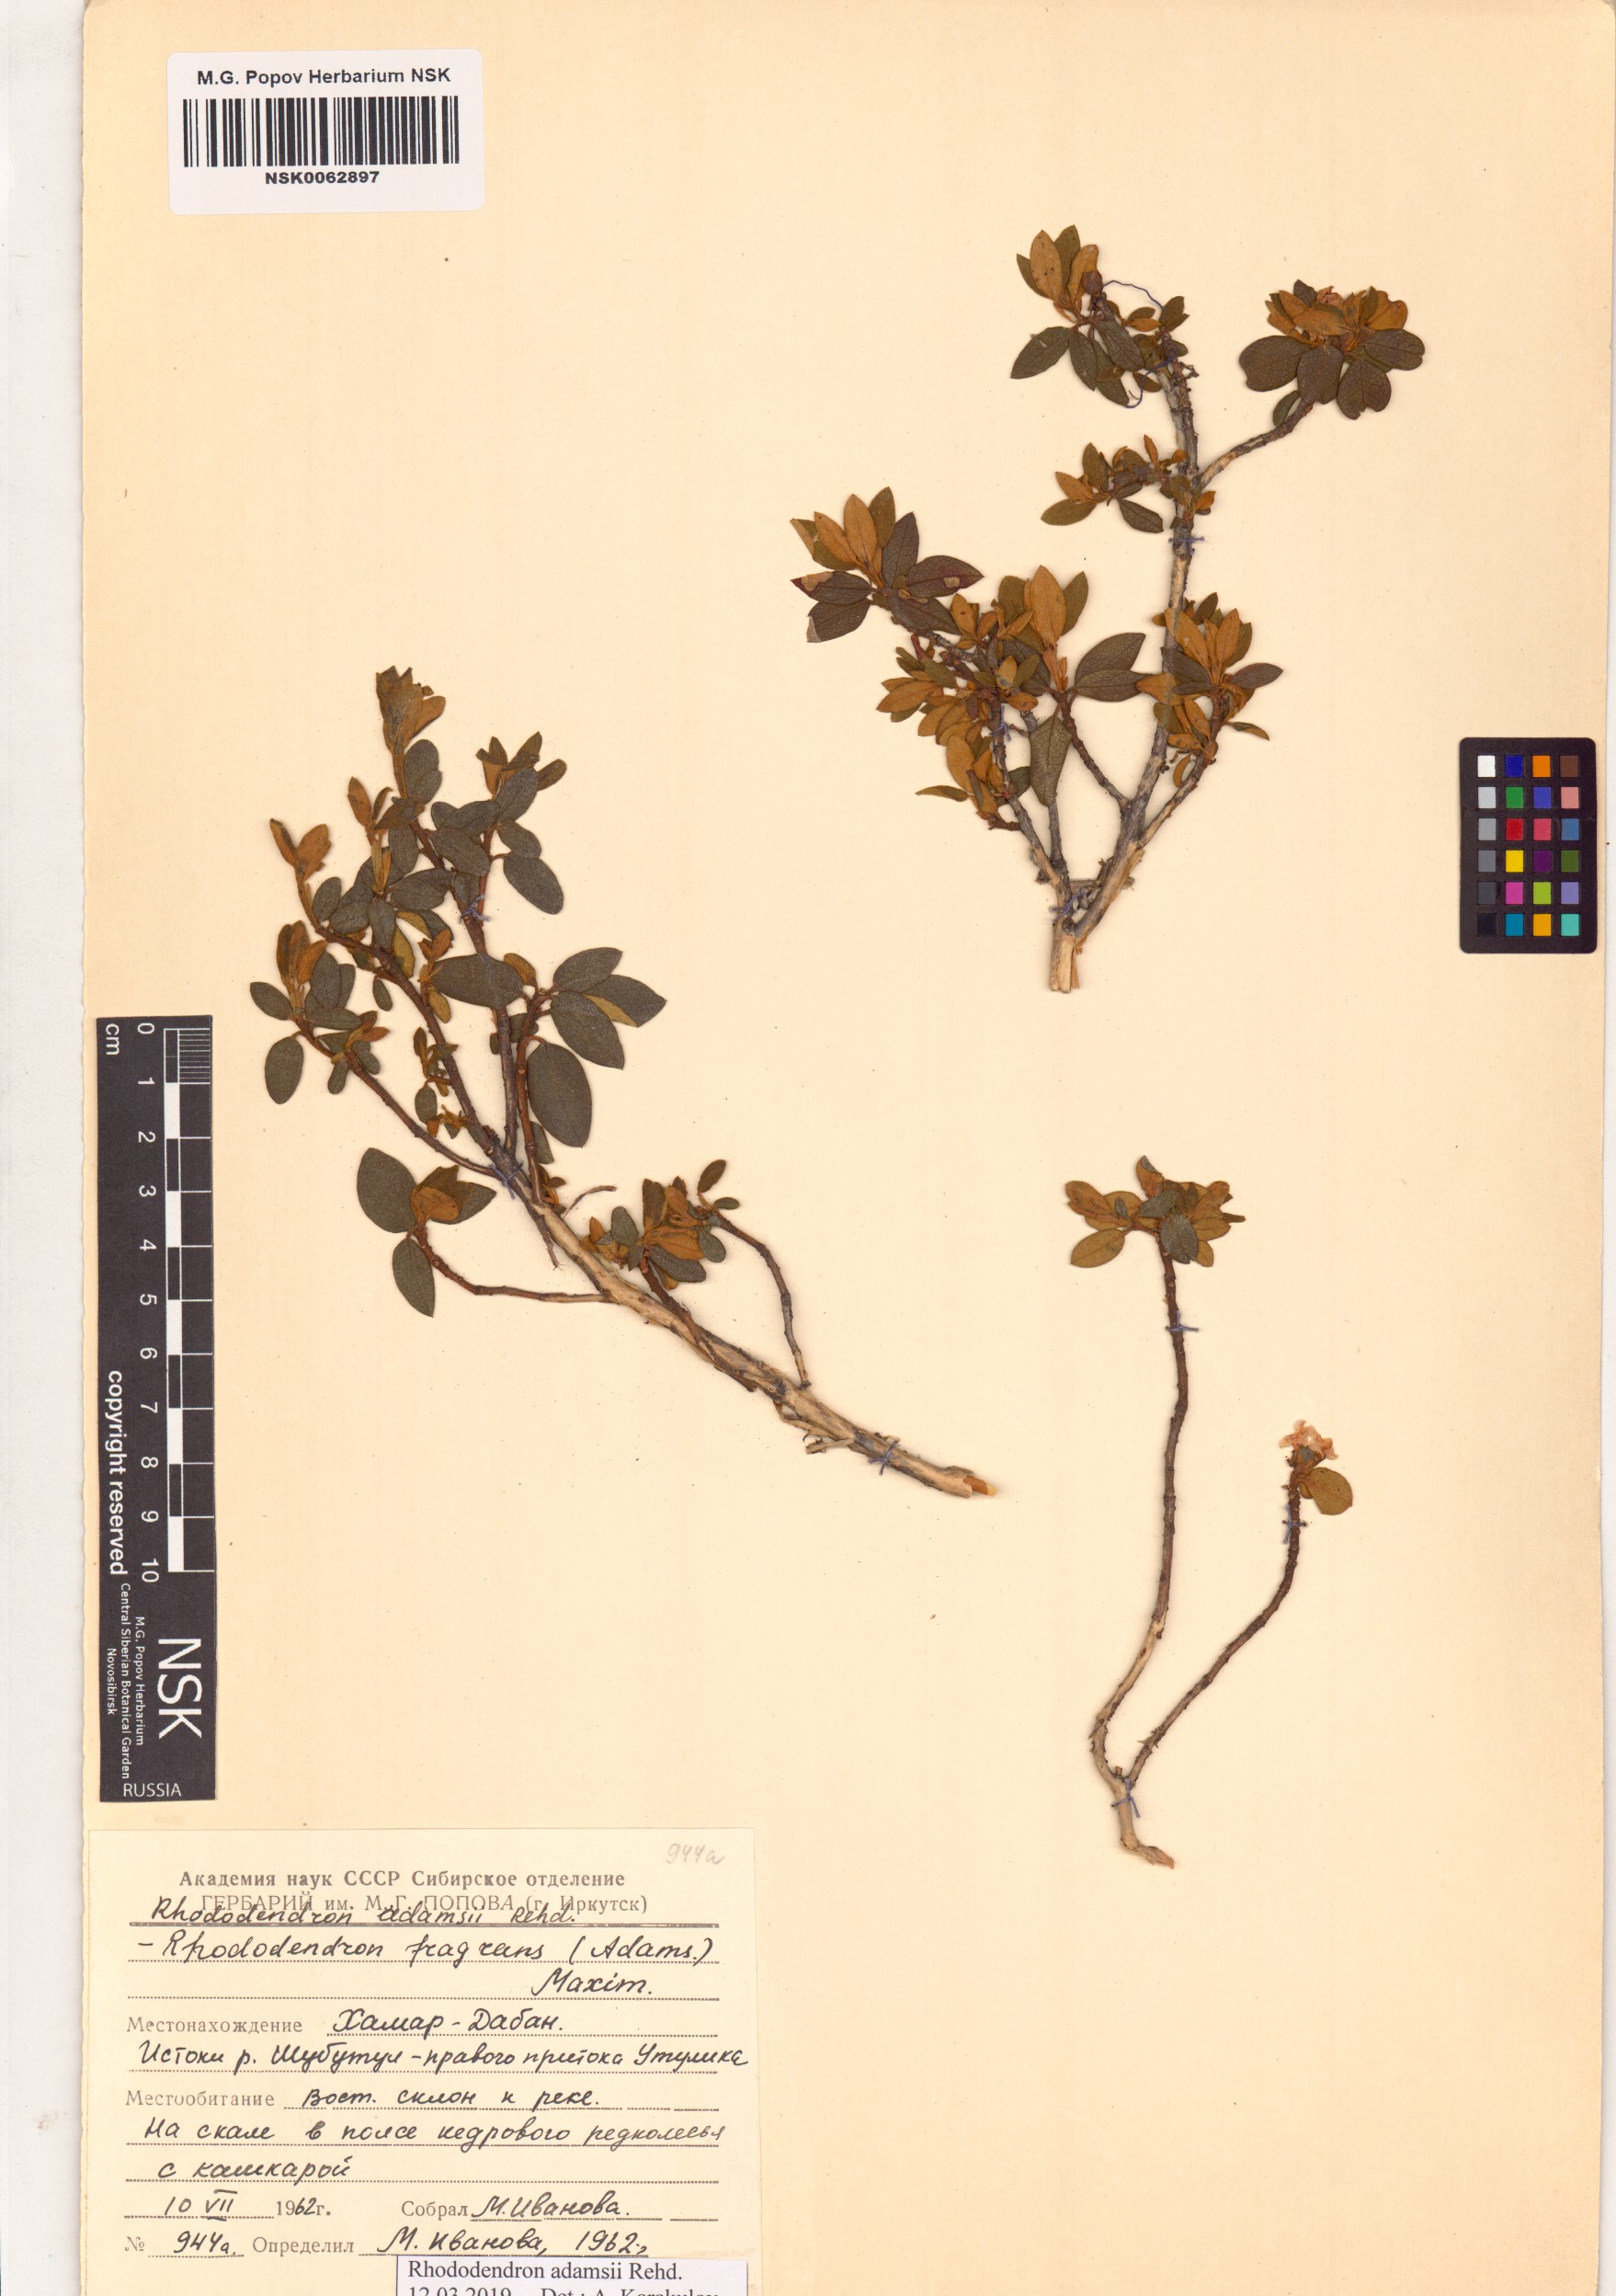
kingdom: Plantae
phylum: Tracheophyta
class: Magnoliopsida
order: Ericales
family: Ericaceae
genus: Rhododendron
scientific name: Rhododendron adamsii
